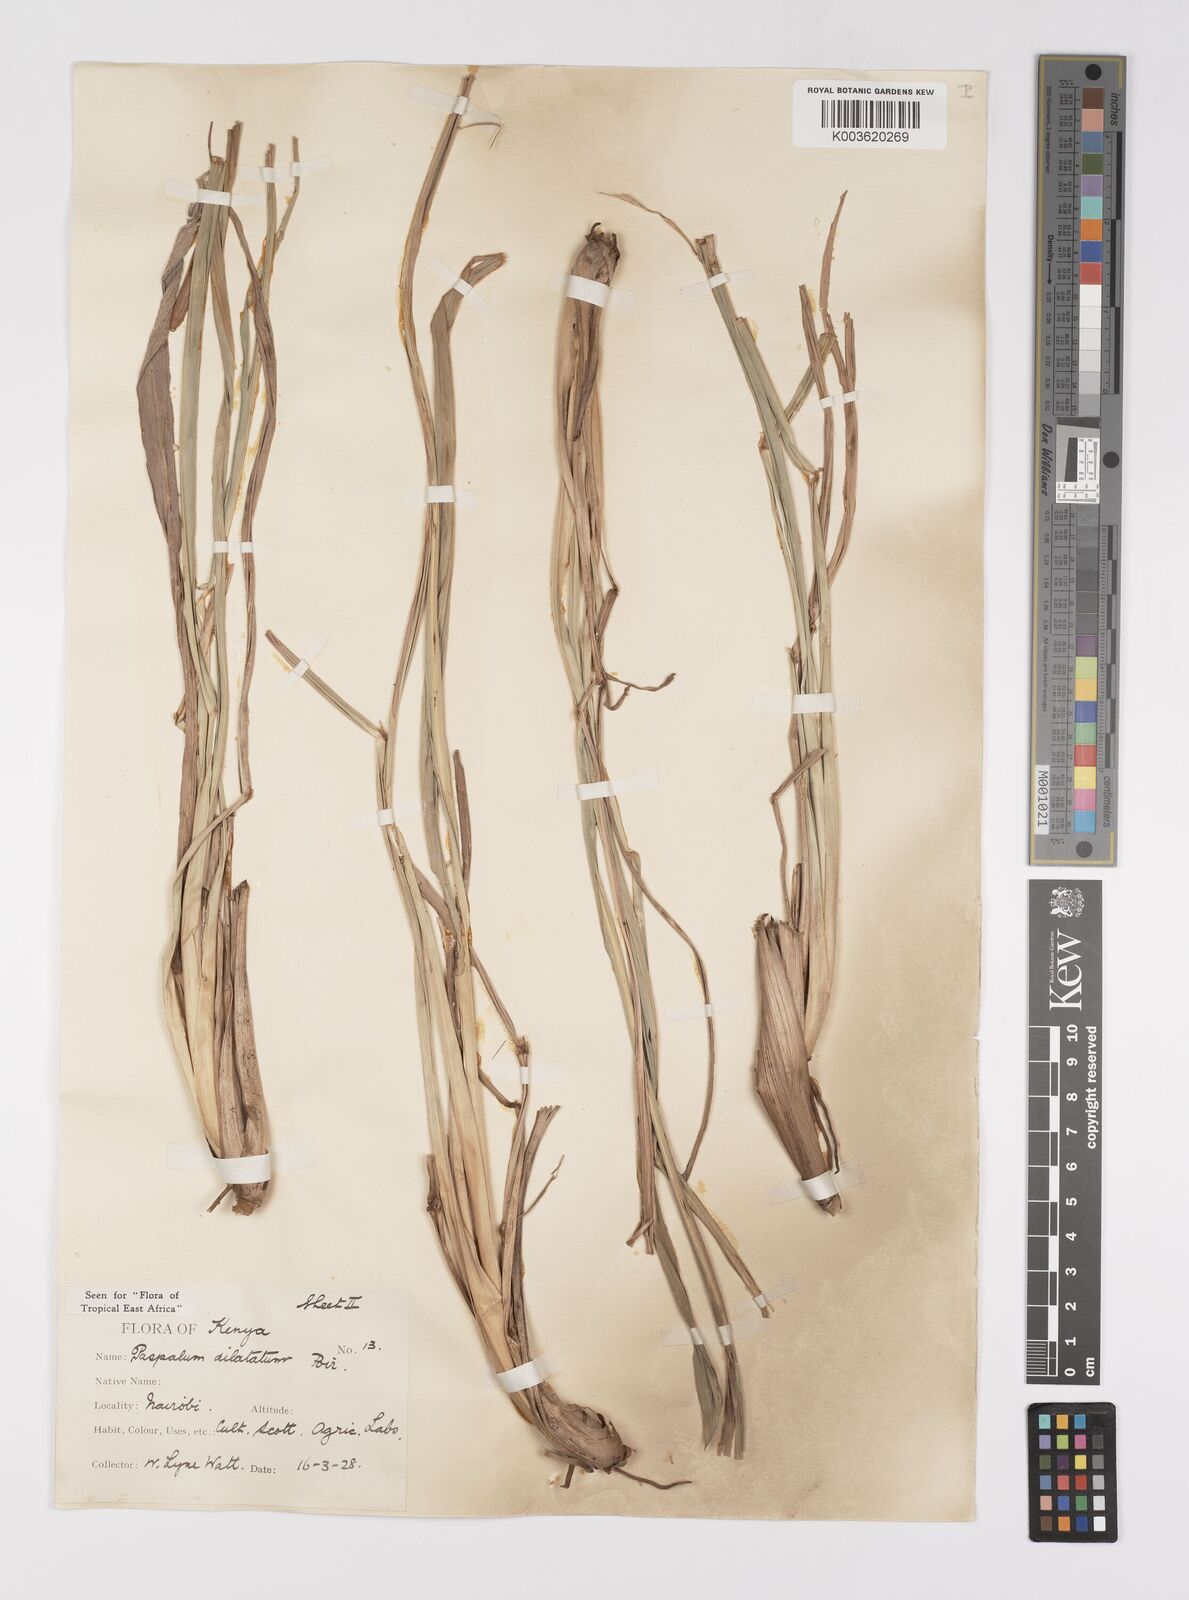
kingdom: Plantae
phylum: Tracheophyta
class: Liliopsida
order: Poales
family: Poaceae
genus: Paspalum
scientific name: Paspalum dilatatum
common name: Dallisgrass
